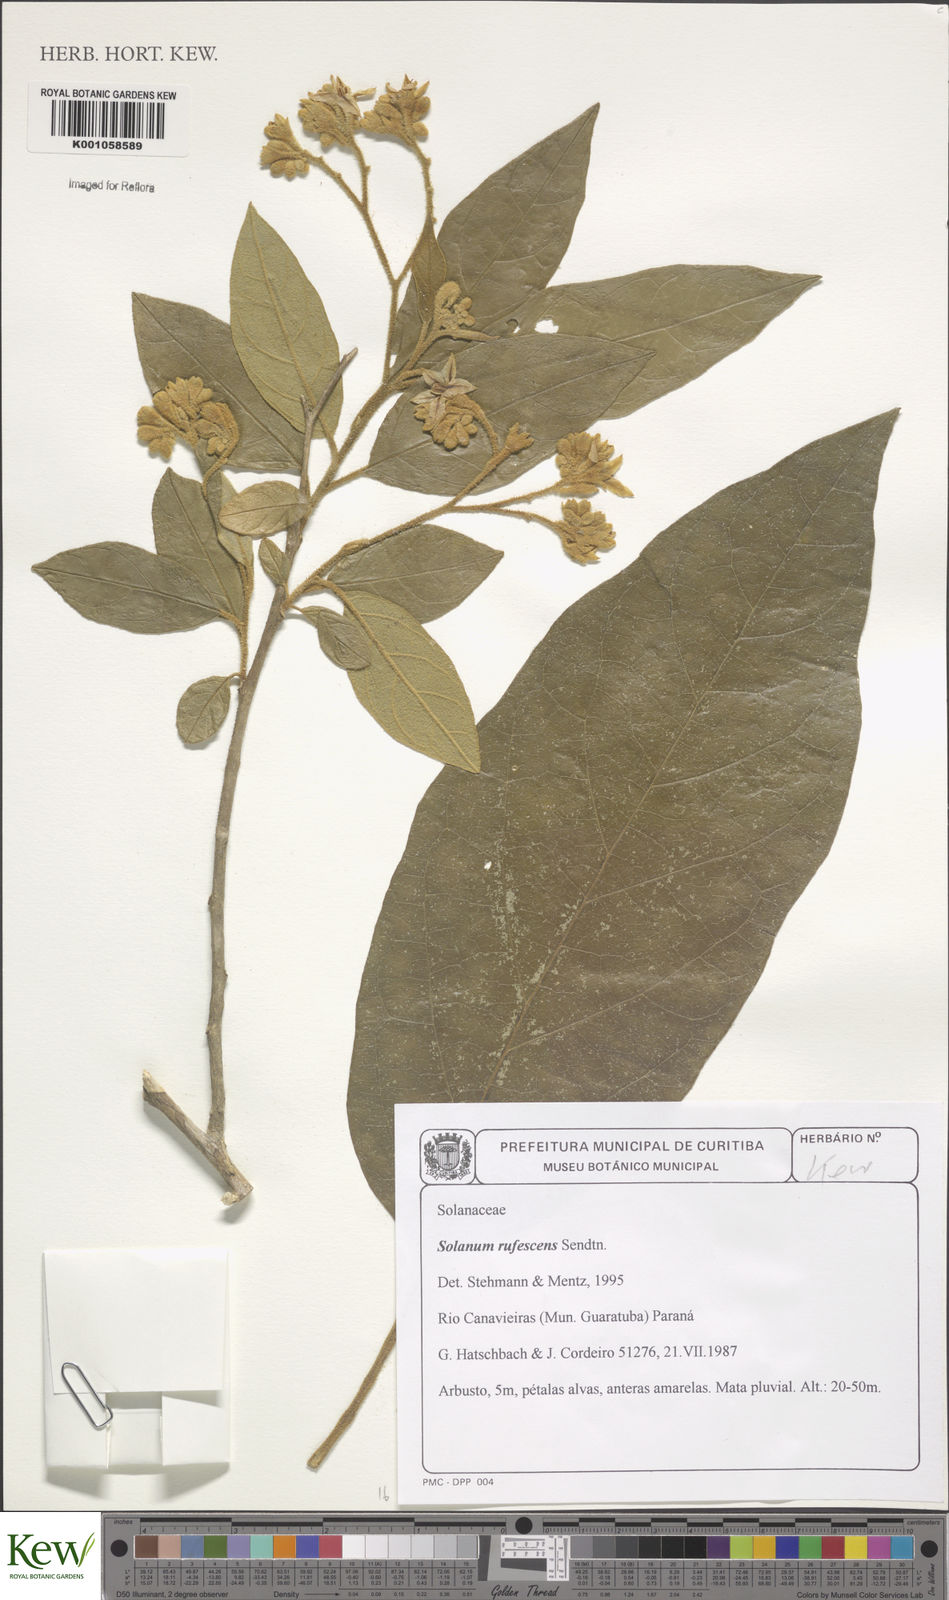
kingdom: Plantae
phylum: Tracheophyta
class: Magnoliopsida
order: Solanales
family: Solanaceae
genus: Solanum
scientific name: Solanum rufescens
